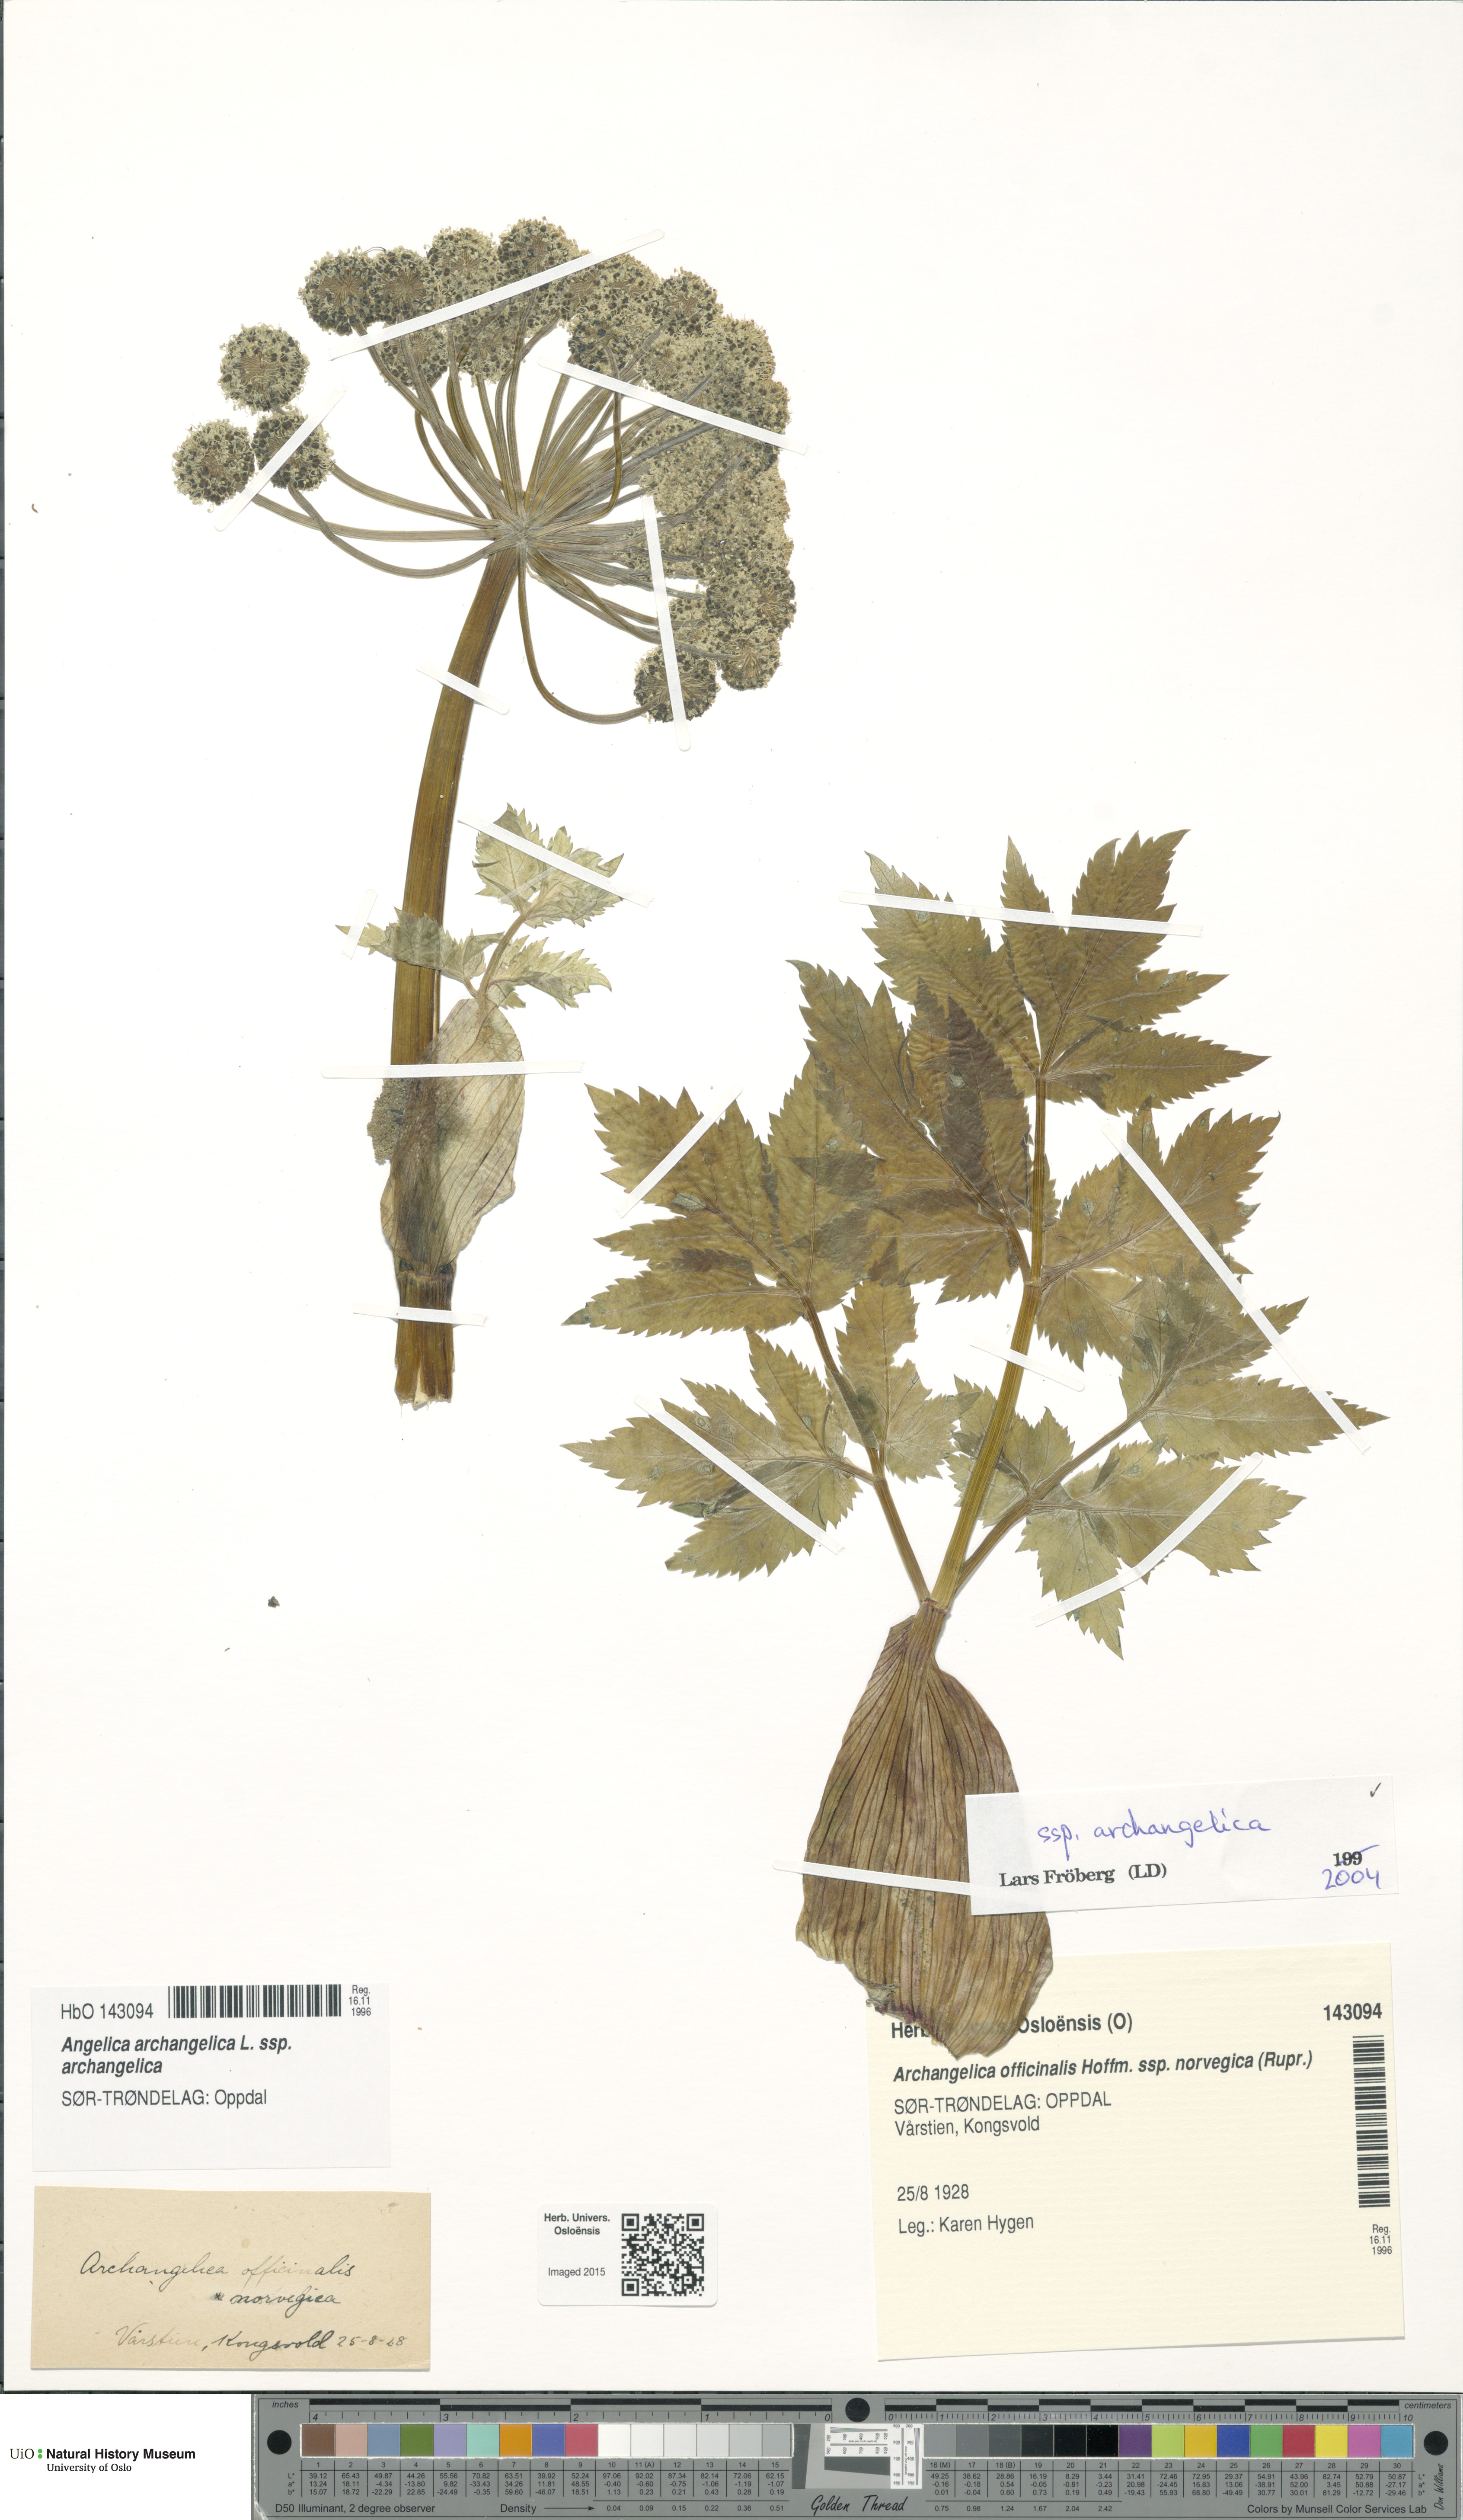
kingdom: Plantae
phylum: Tracheophyta
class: Magnoliopsida
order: Apiales
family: Apiaceae
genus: Angelica
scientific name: Angelica archangelica
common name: Garden angelica
